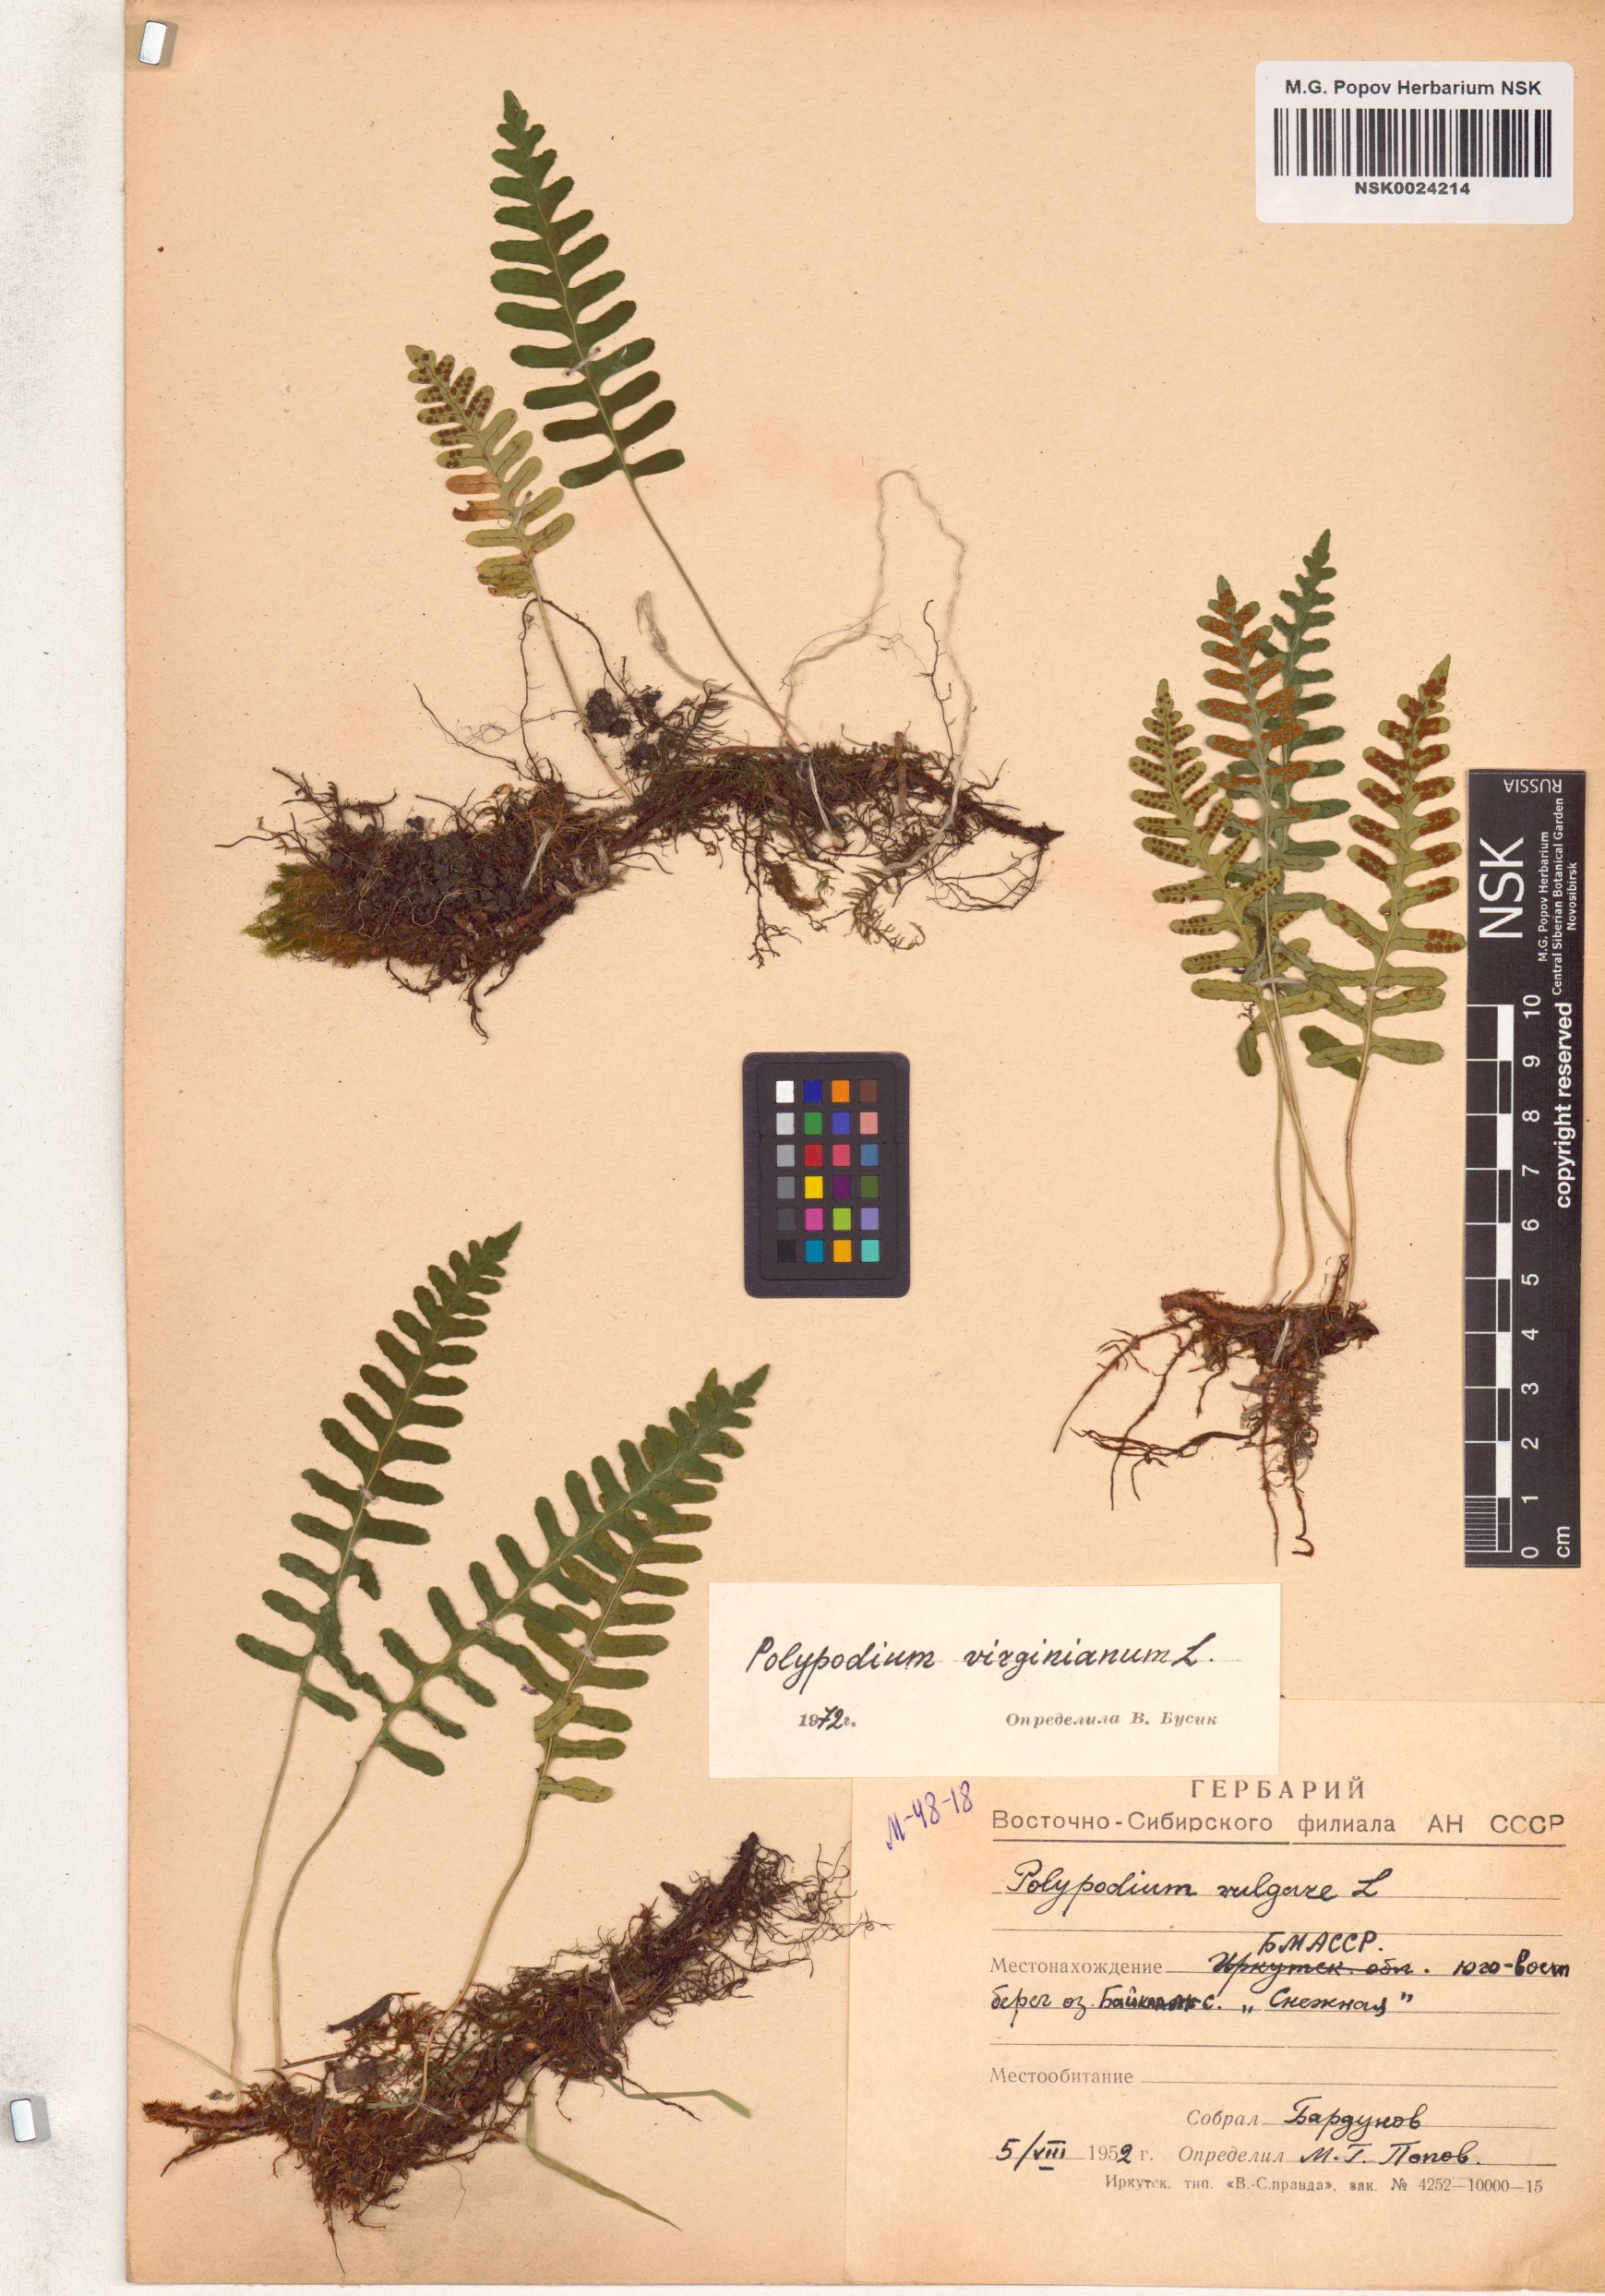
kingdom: Plantae
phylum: Tracheophyta
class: Polypodiopsida
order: Polypodiales
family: Polypodiaceae
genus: Polypodium
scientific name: Polypodium virginianum
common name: American wall fern
